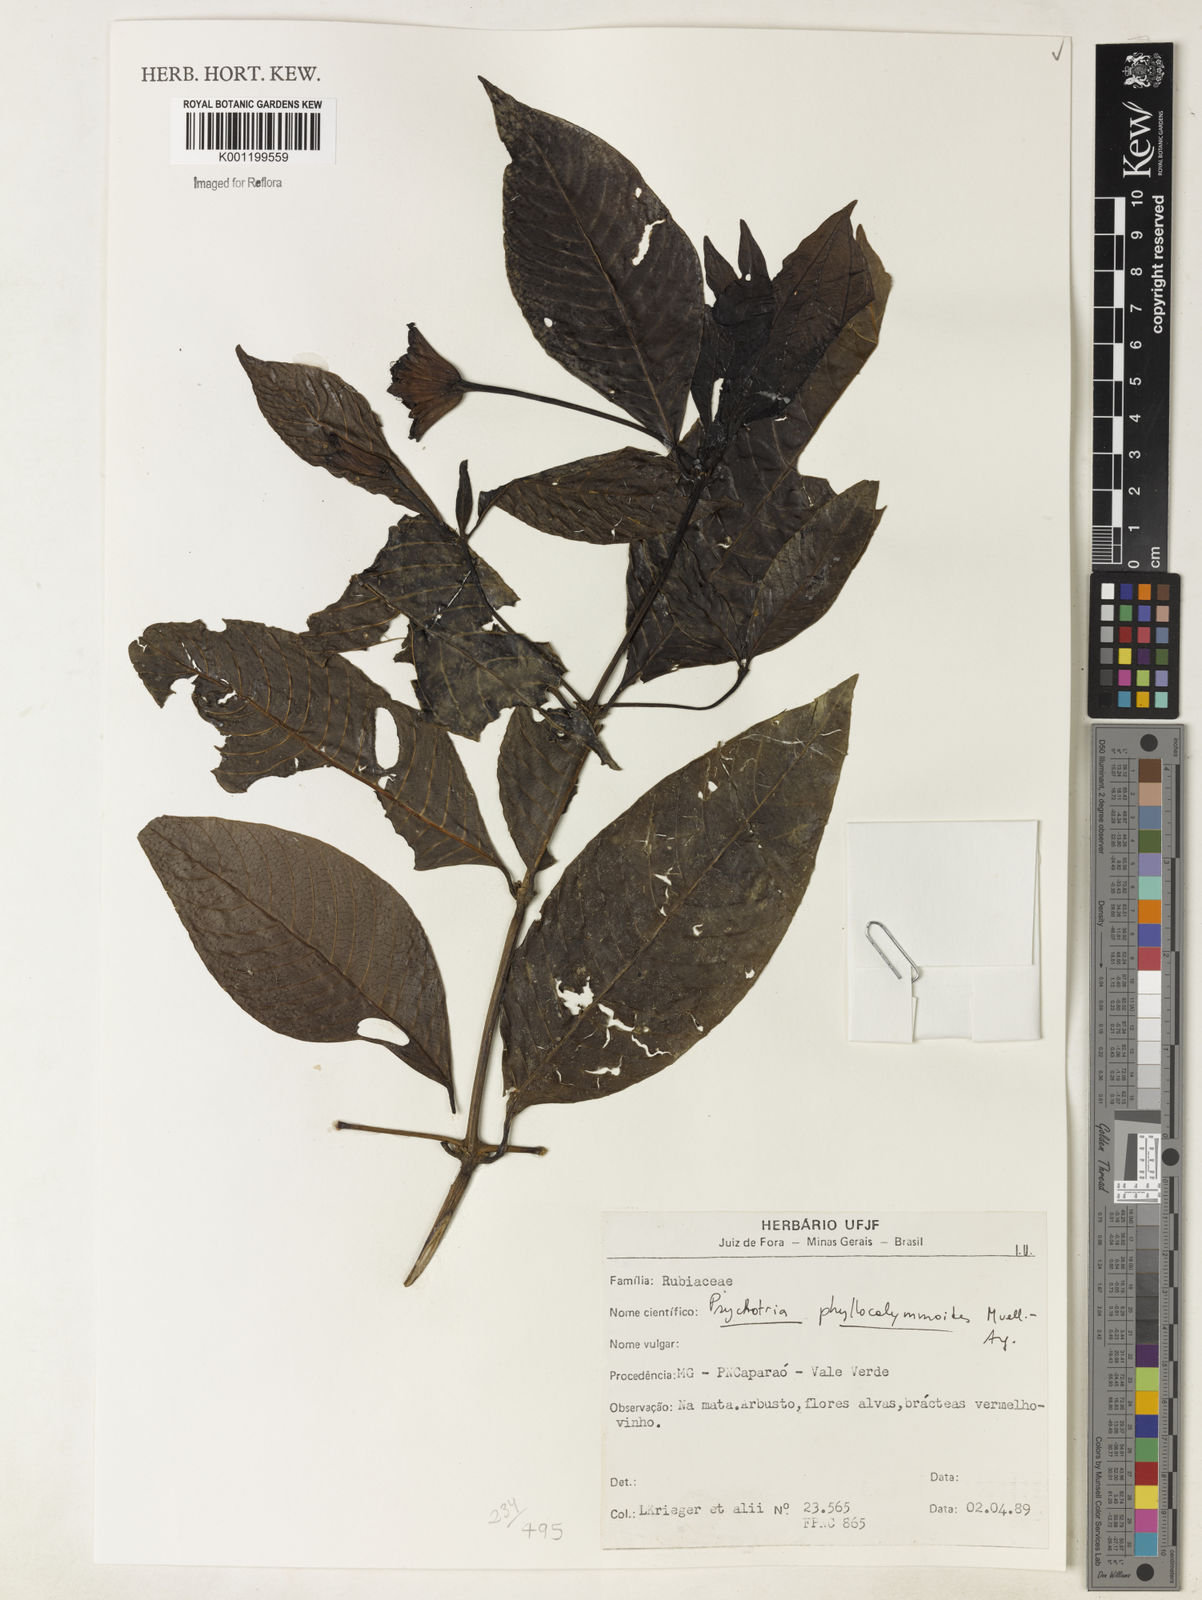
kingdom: Plantae
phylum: Tracheophyta
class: Magnoliopsida
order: Gentianales
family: Rubiaceae
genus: Psychotria
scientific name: Psychotria
